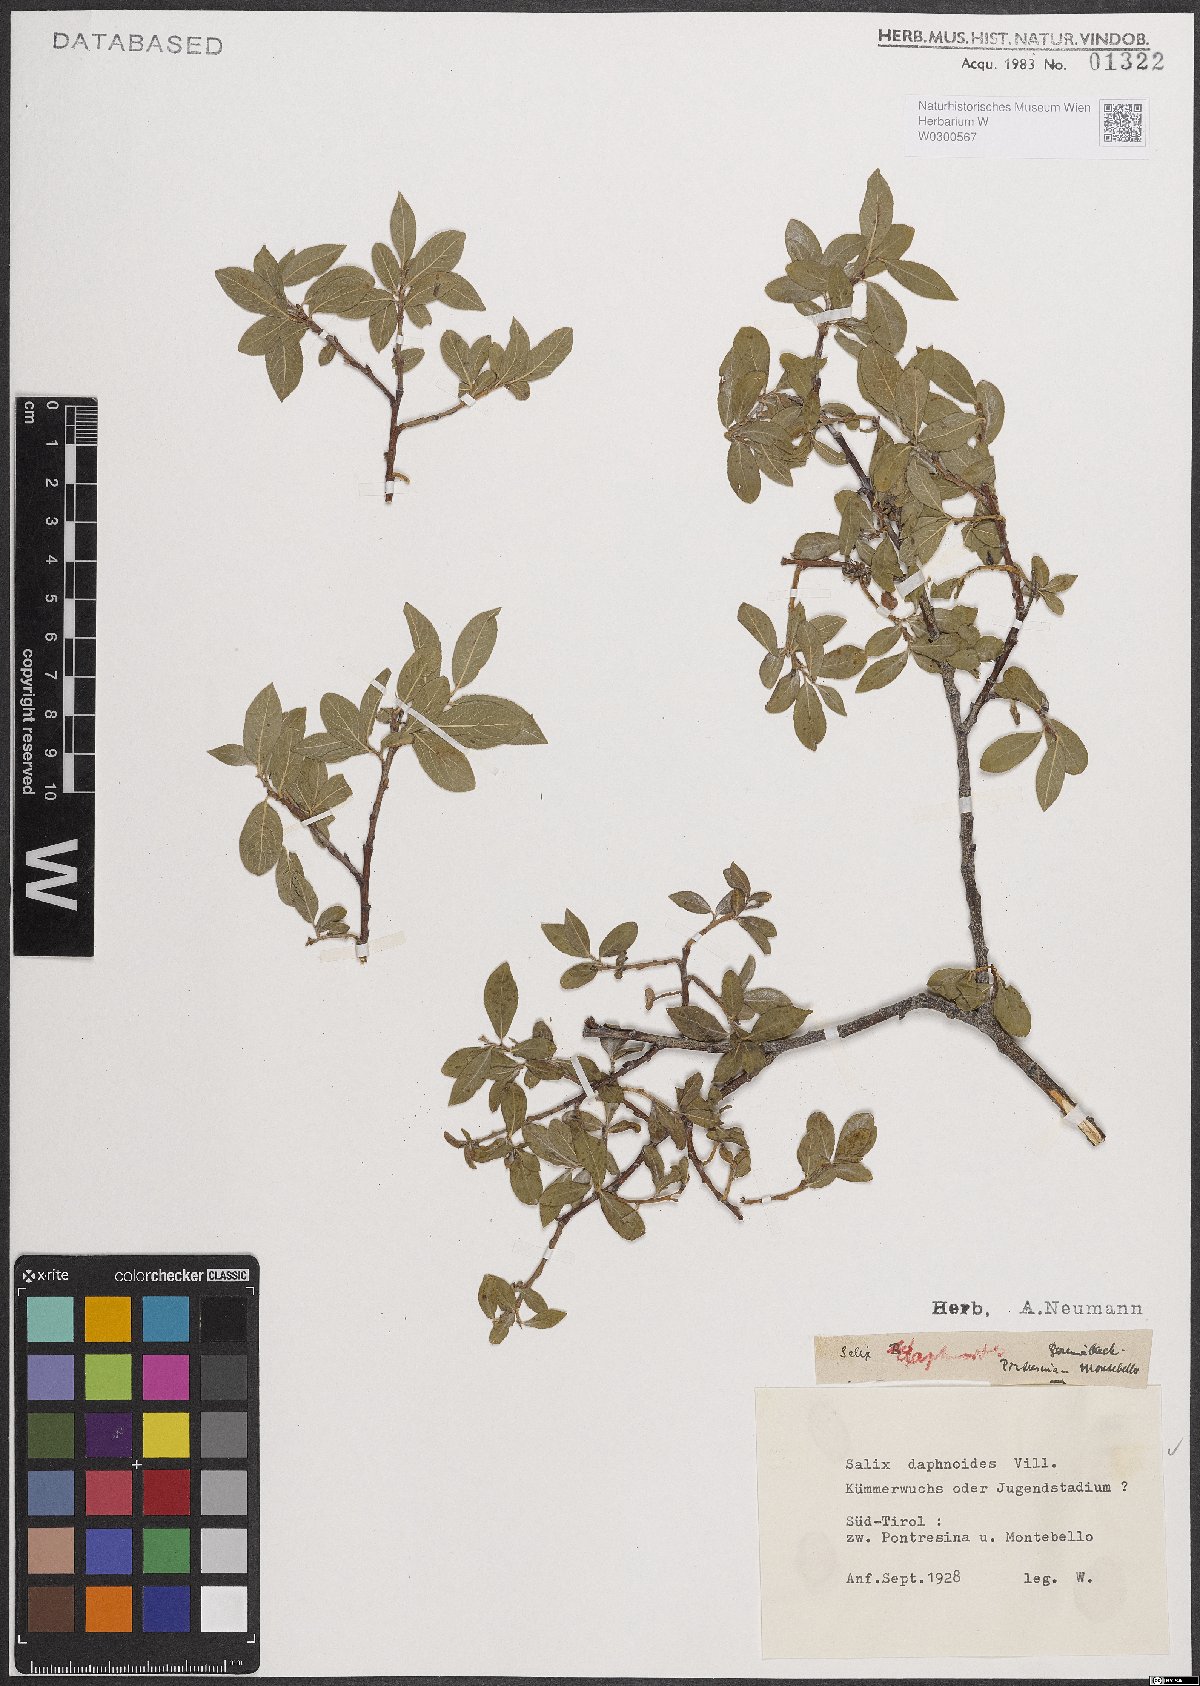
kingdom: Plantae
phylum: Tracheophyta
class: Magnoliopsida
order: Malpighiales
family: Salicaceae
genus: Salix
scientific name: Salix daphnoides
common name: European violet-willow
